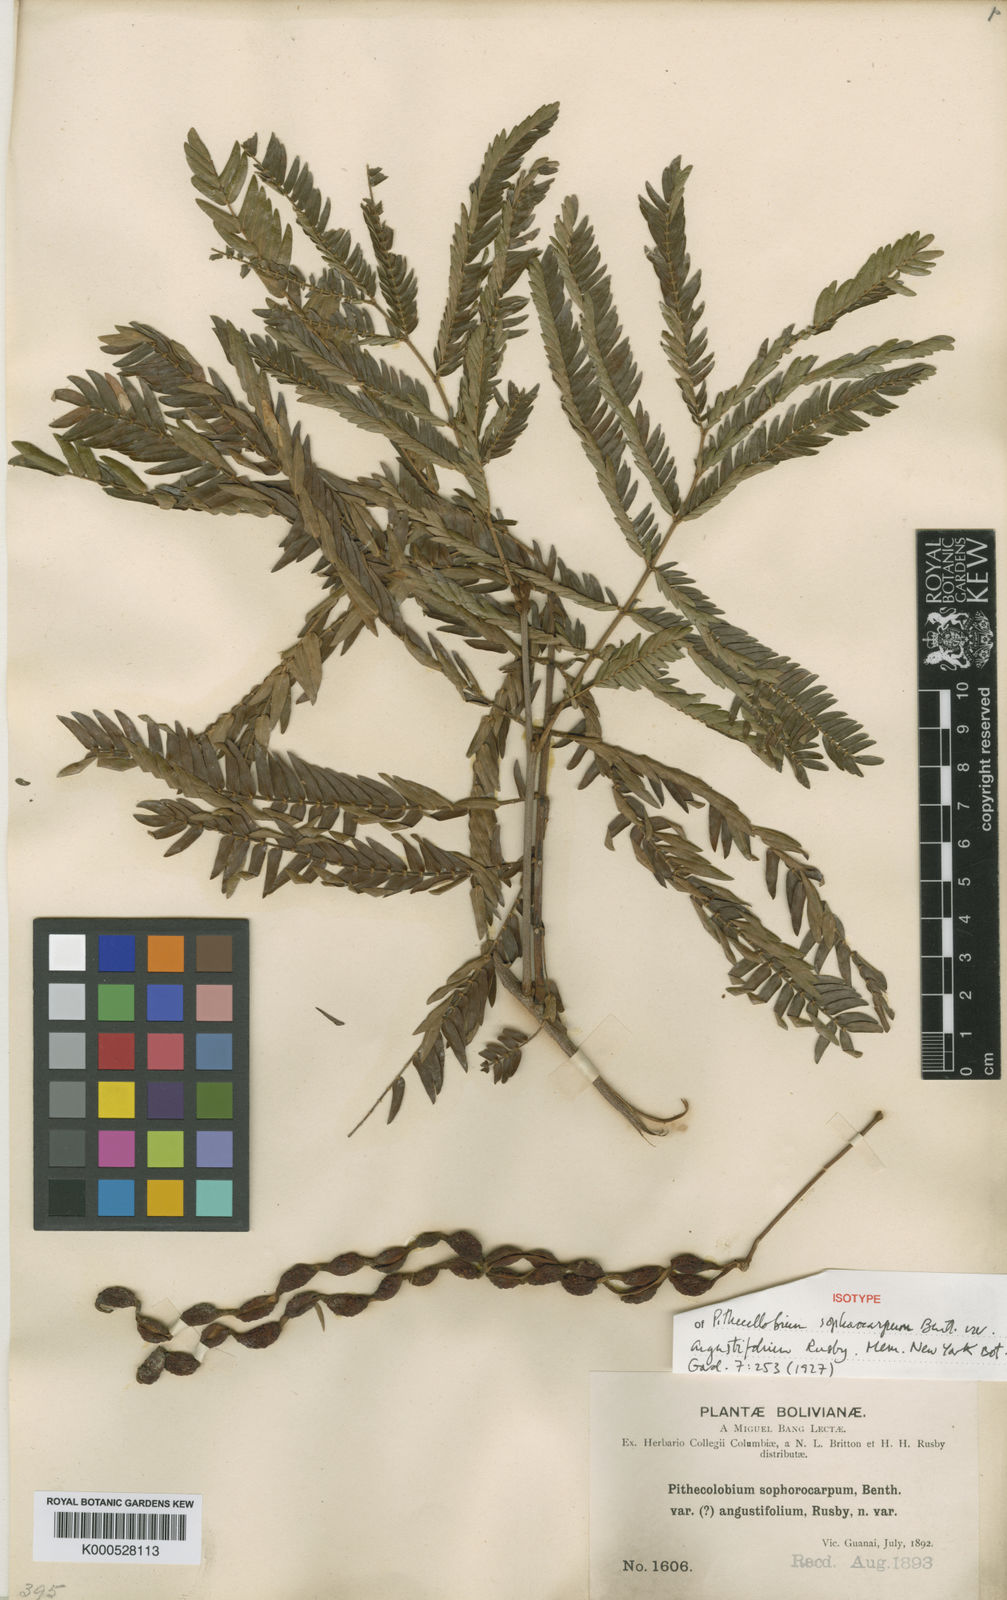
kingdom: Plantae
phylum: Tracheophyta
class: Magnoliopsida
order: Fabales
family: Fabaceae
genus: Cojoba
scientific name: Cojoba arborea
